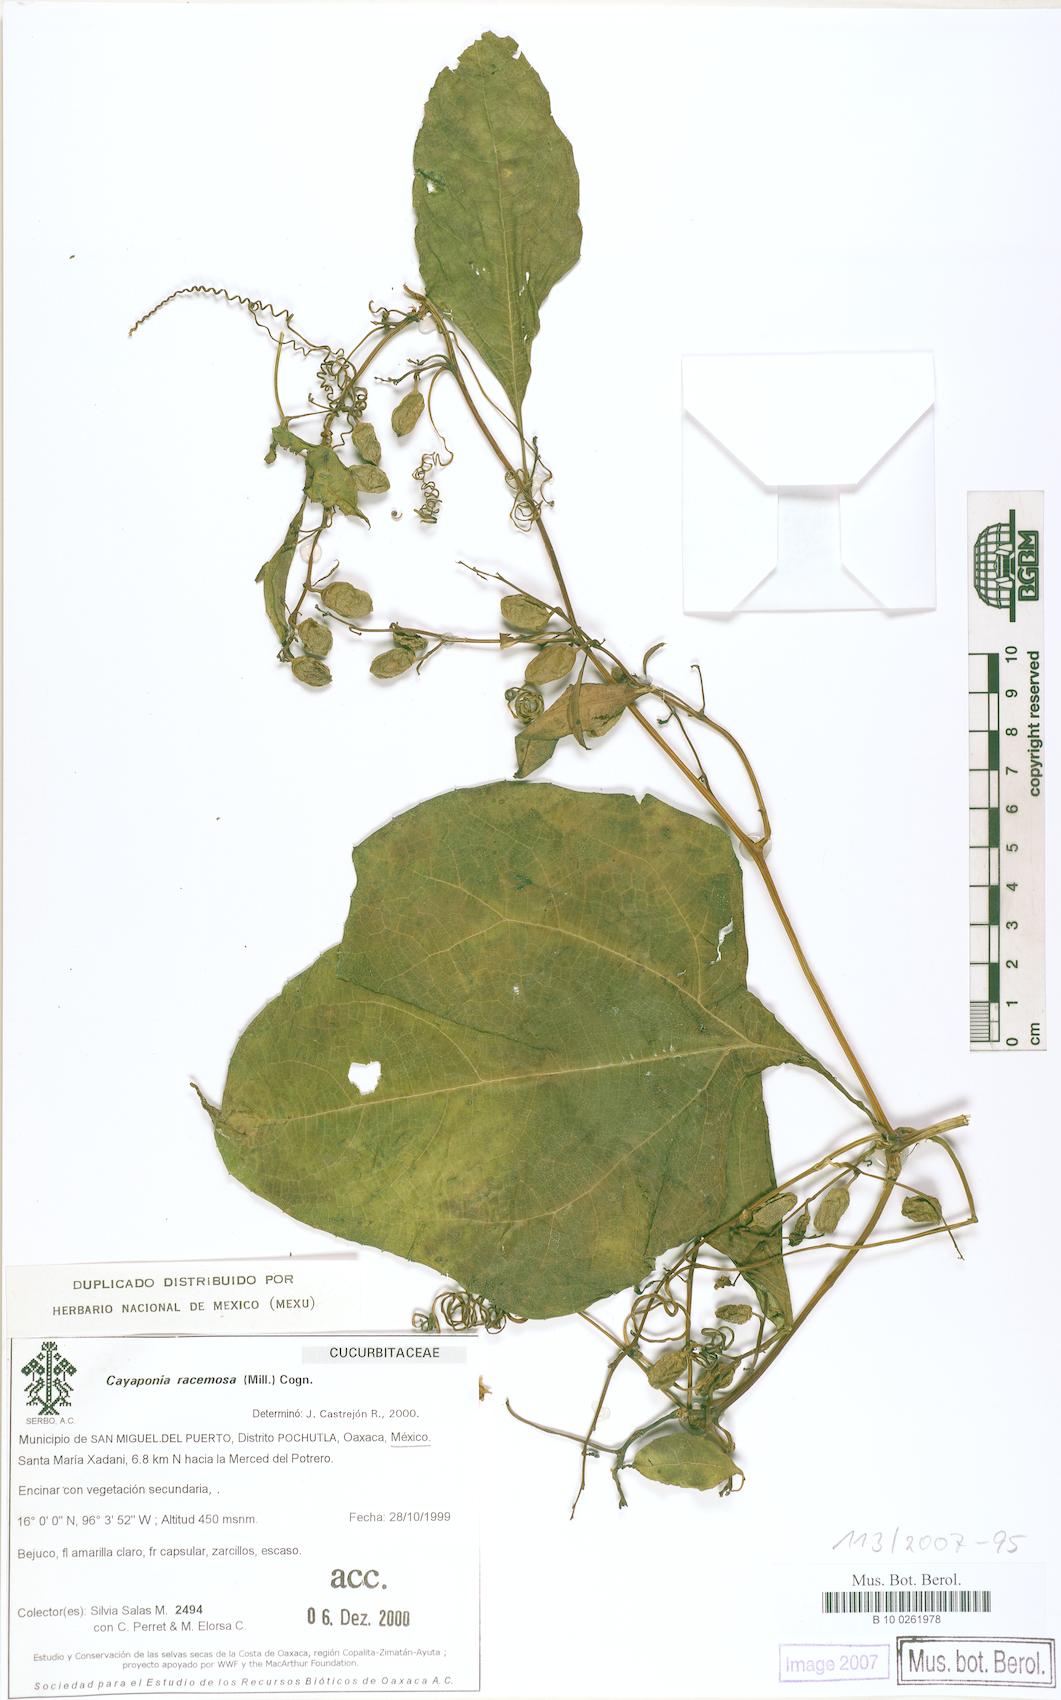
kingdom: Plantae
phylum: Tracheophyta
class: Magnoliopsida
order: Cucurbitales
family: Cucurbitaceae
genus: Cayaponia
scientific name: Cayaponia racemosa
